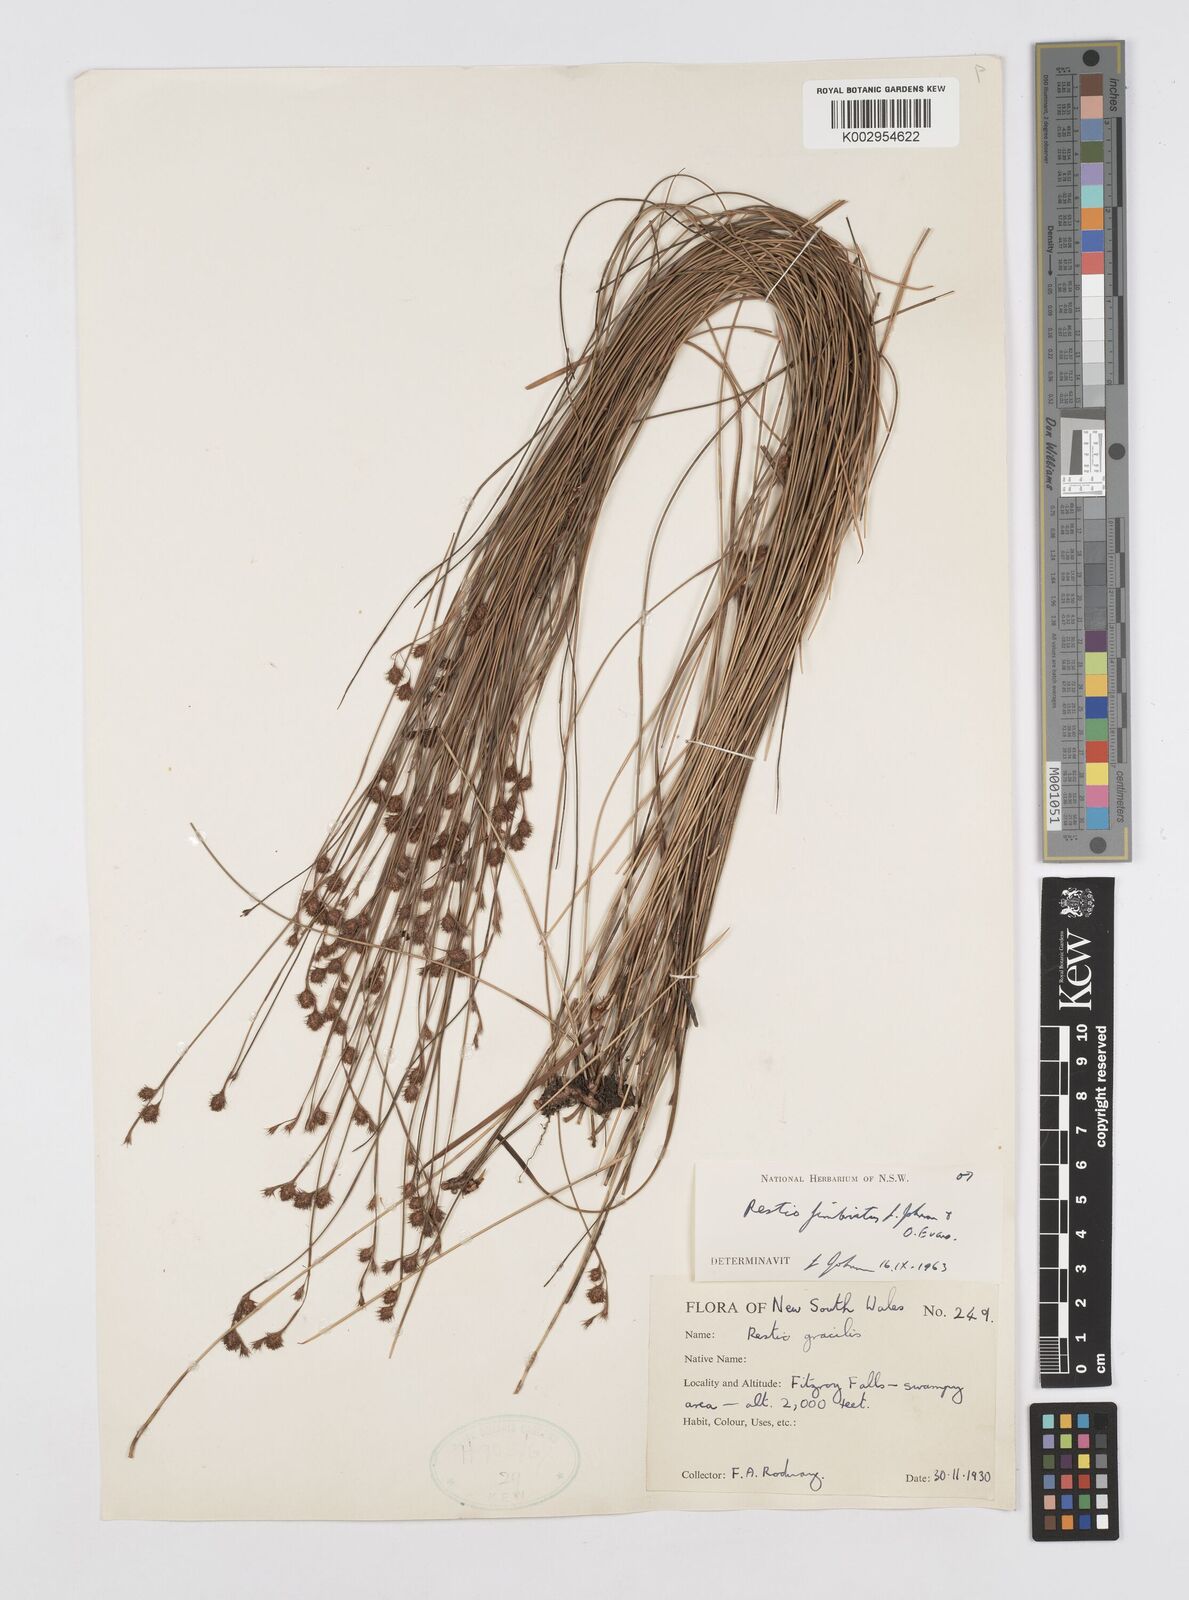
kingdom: Plantae
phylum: Tracheophyta
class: Liliopsida
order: Poales
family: Restionaceae
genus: Baloskion
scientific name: Baloskion fimbriatum
